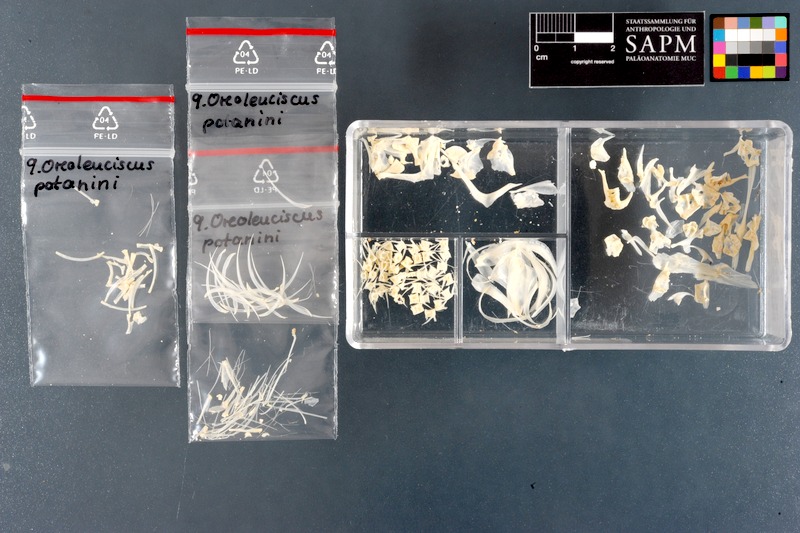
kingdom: Animalia
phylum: Chordata
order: Cypriniformes
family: Cyprinidae
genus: Oreoleuciscus
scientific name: Oreoleuciscus potanini
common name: Altai osman
